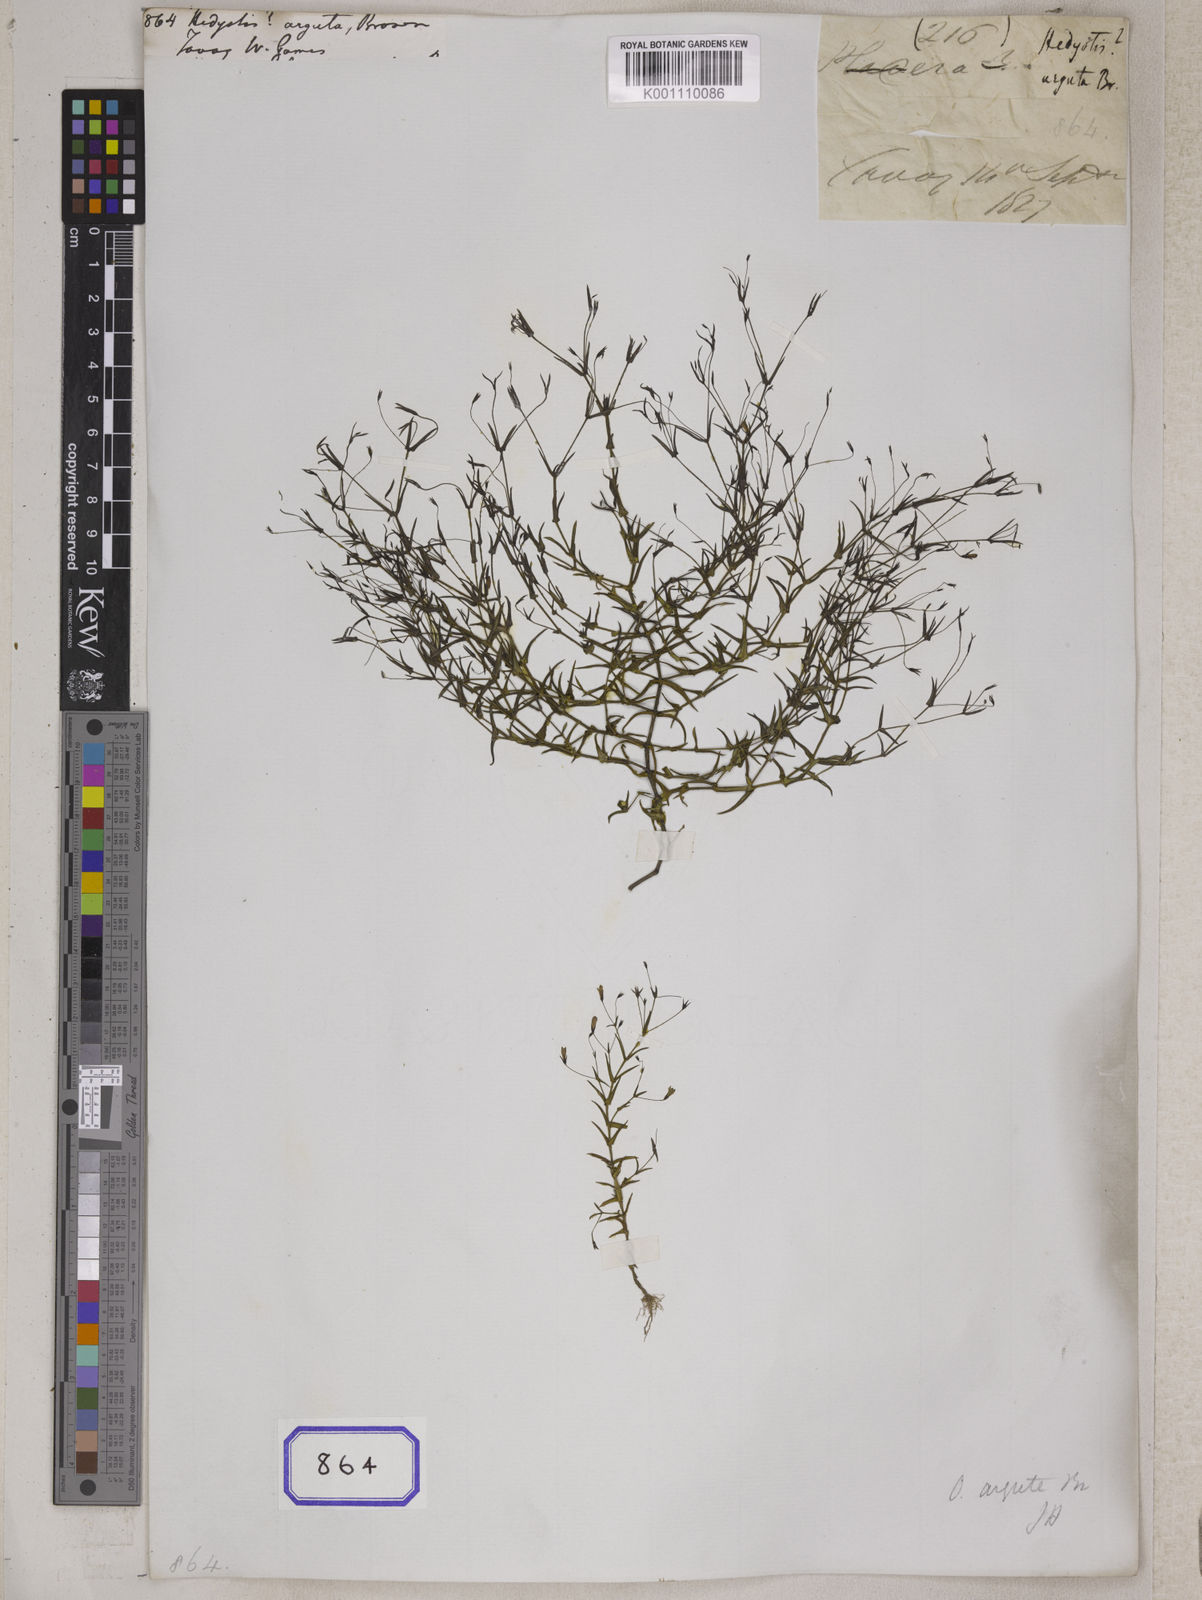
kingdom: Plantae
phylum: Tracheophyta
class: Magnoliopsida
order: Gentianales
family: Rubiaceae
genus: Hedyotis
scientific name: Hedyotis
